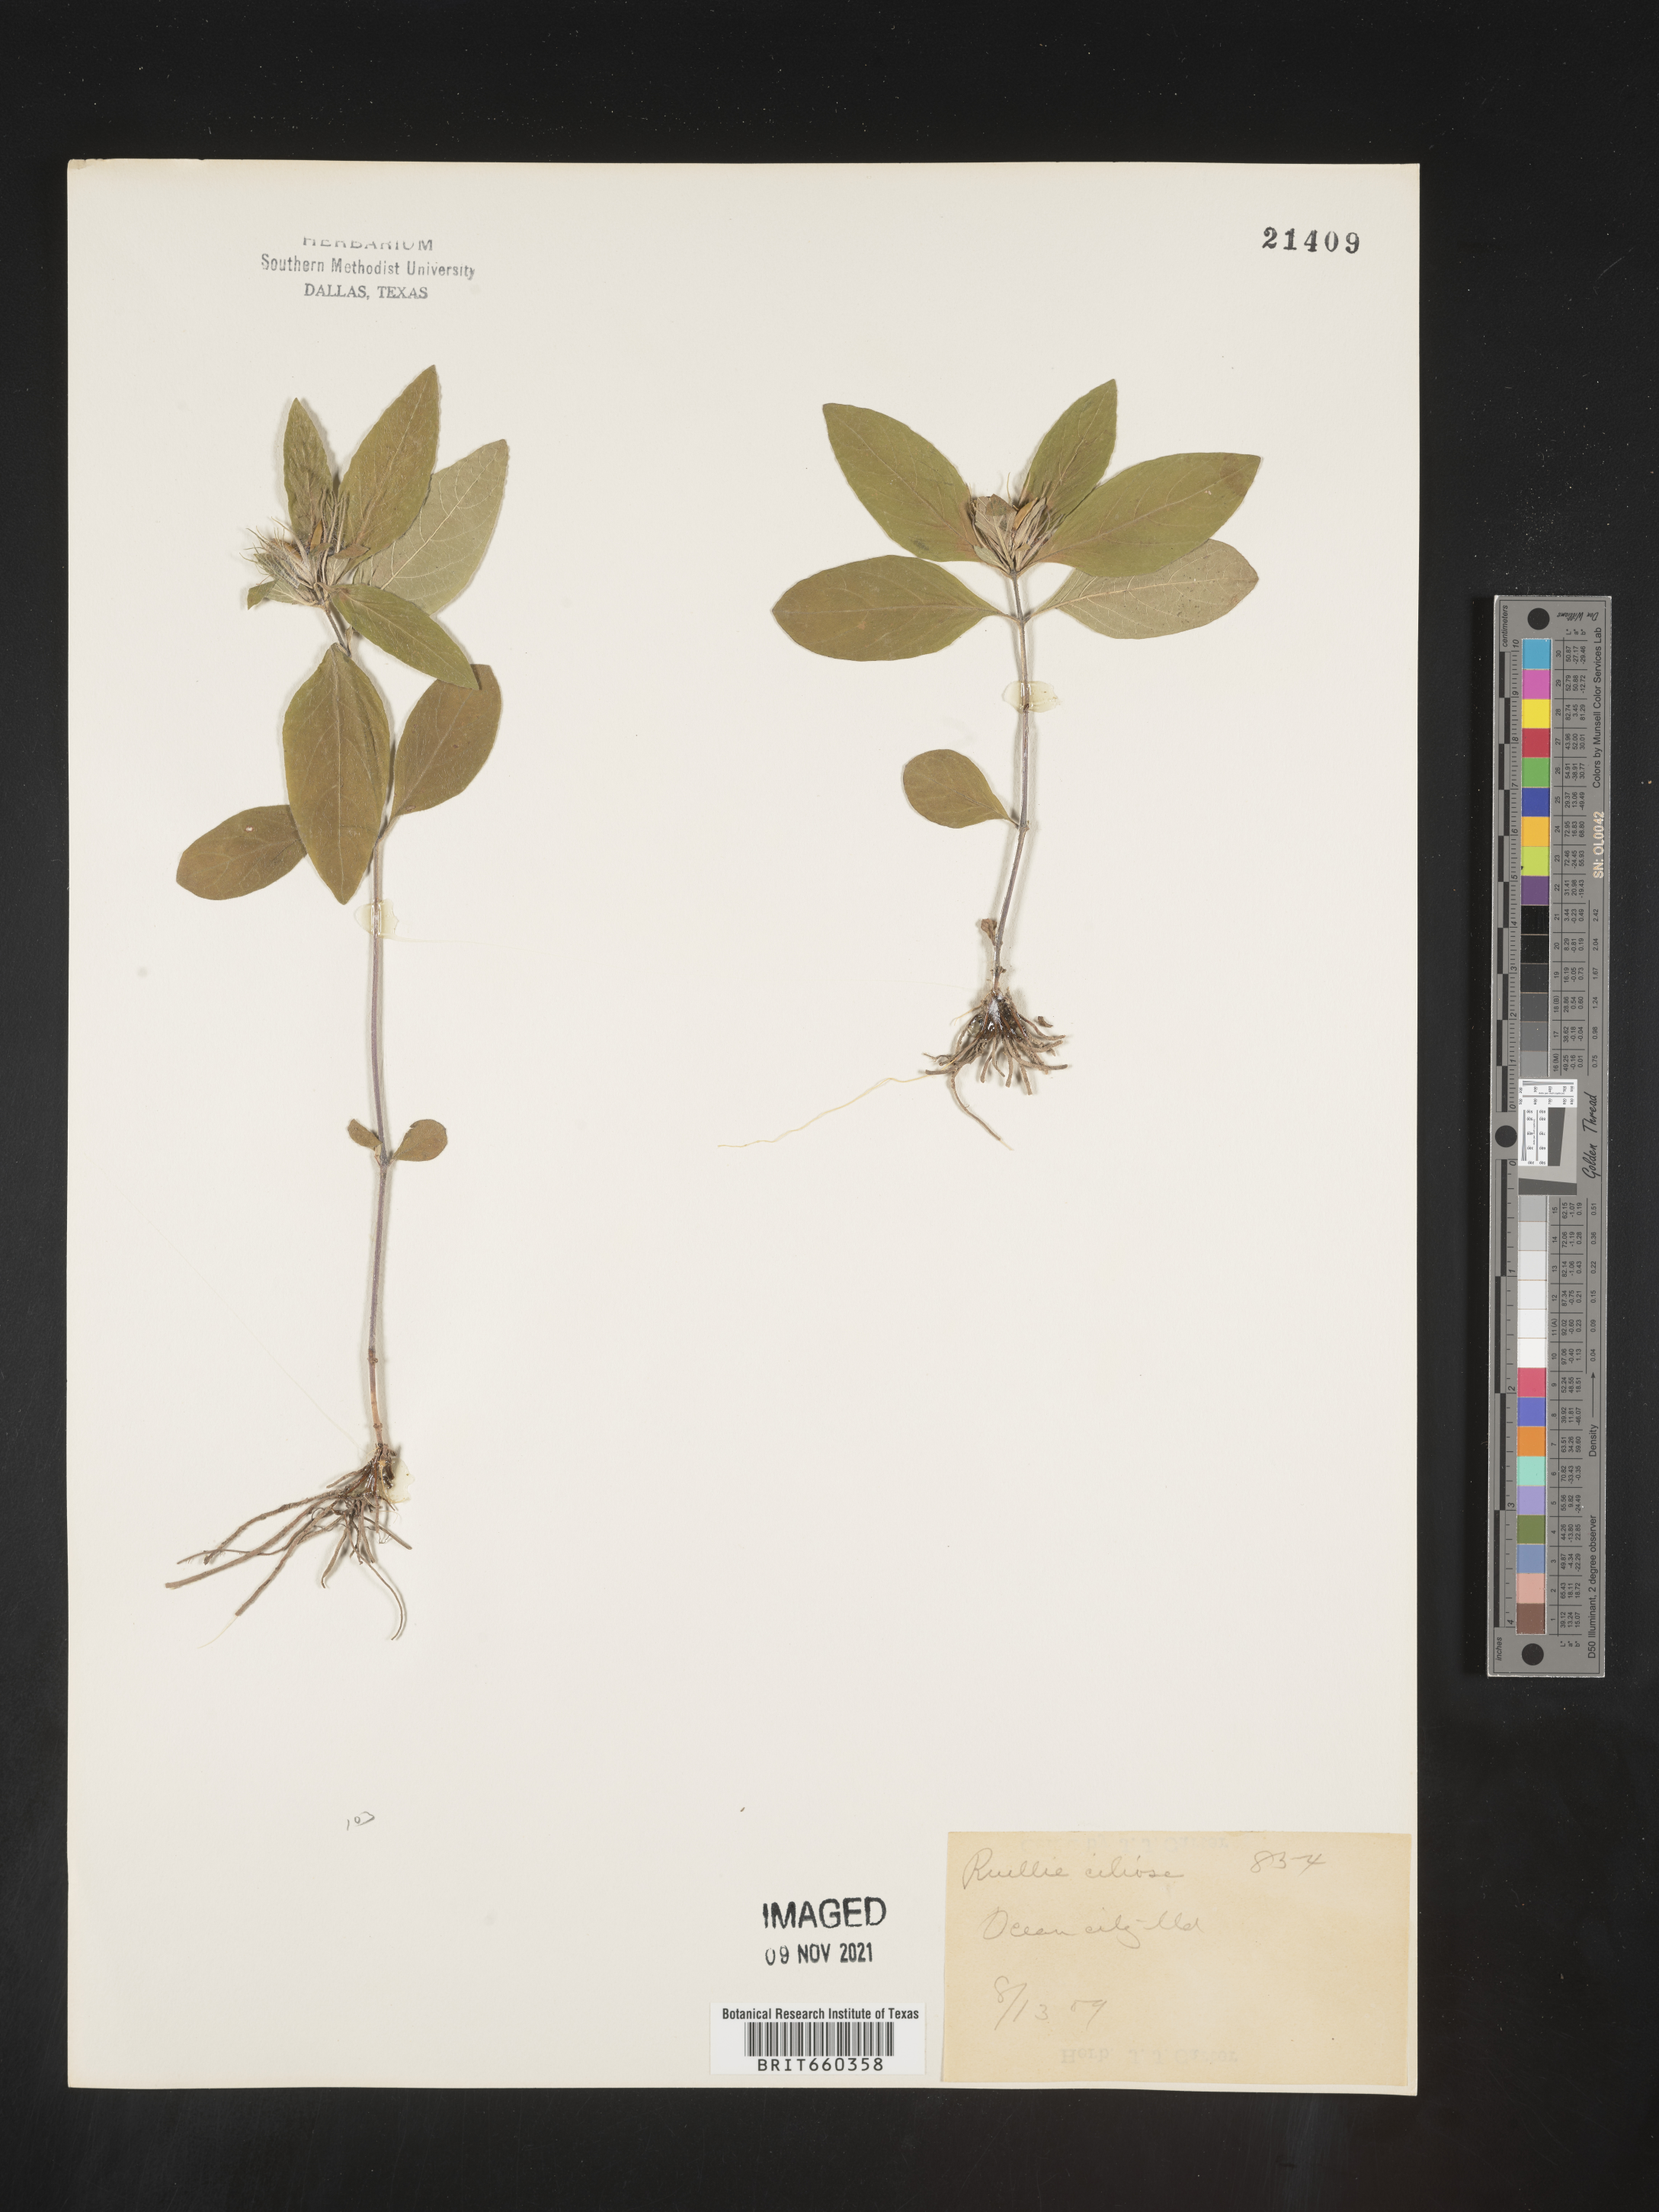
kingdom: Plantae
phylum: Tracheophyta
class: Magnoliopsida
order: Lamiales
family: Acanthaceae
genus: Ruellia
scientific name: Ruellia caroliniensis
